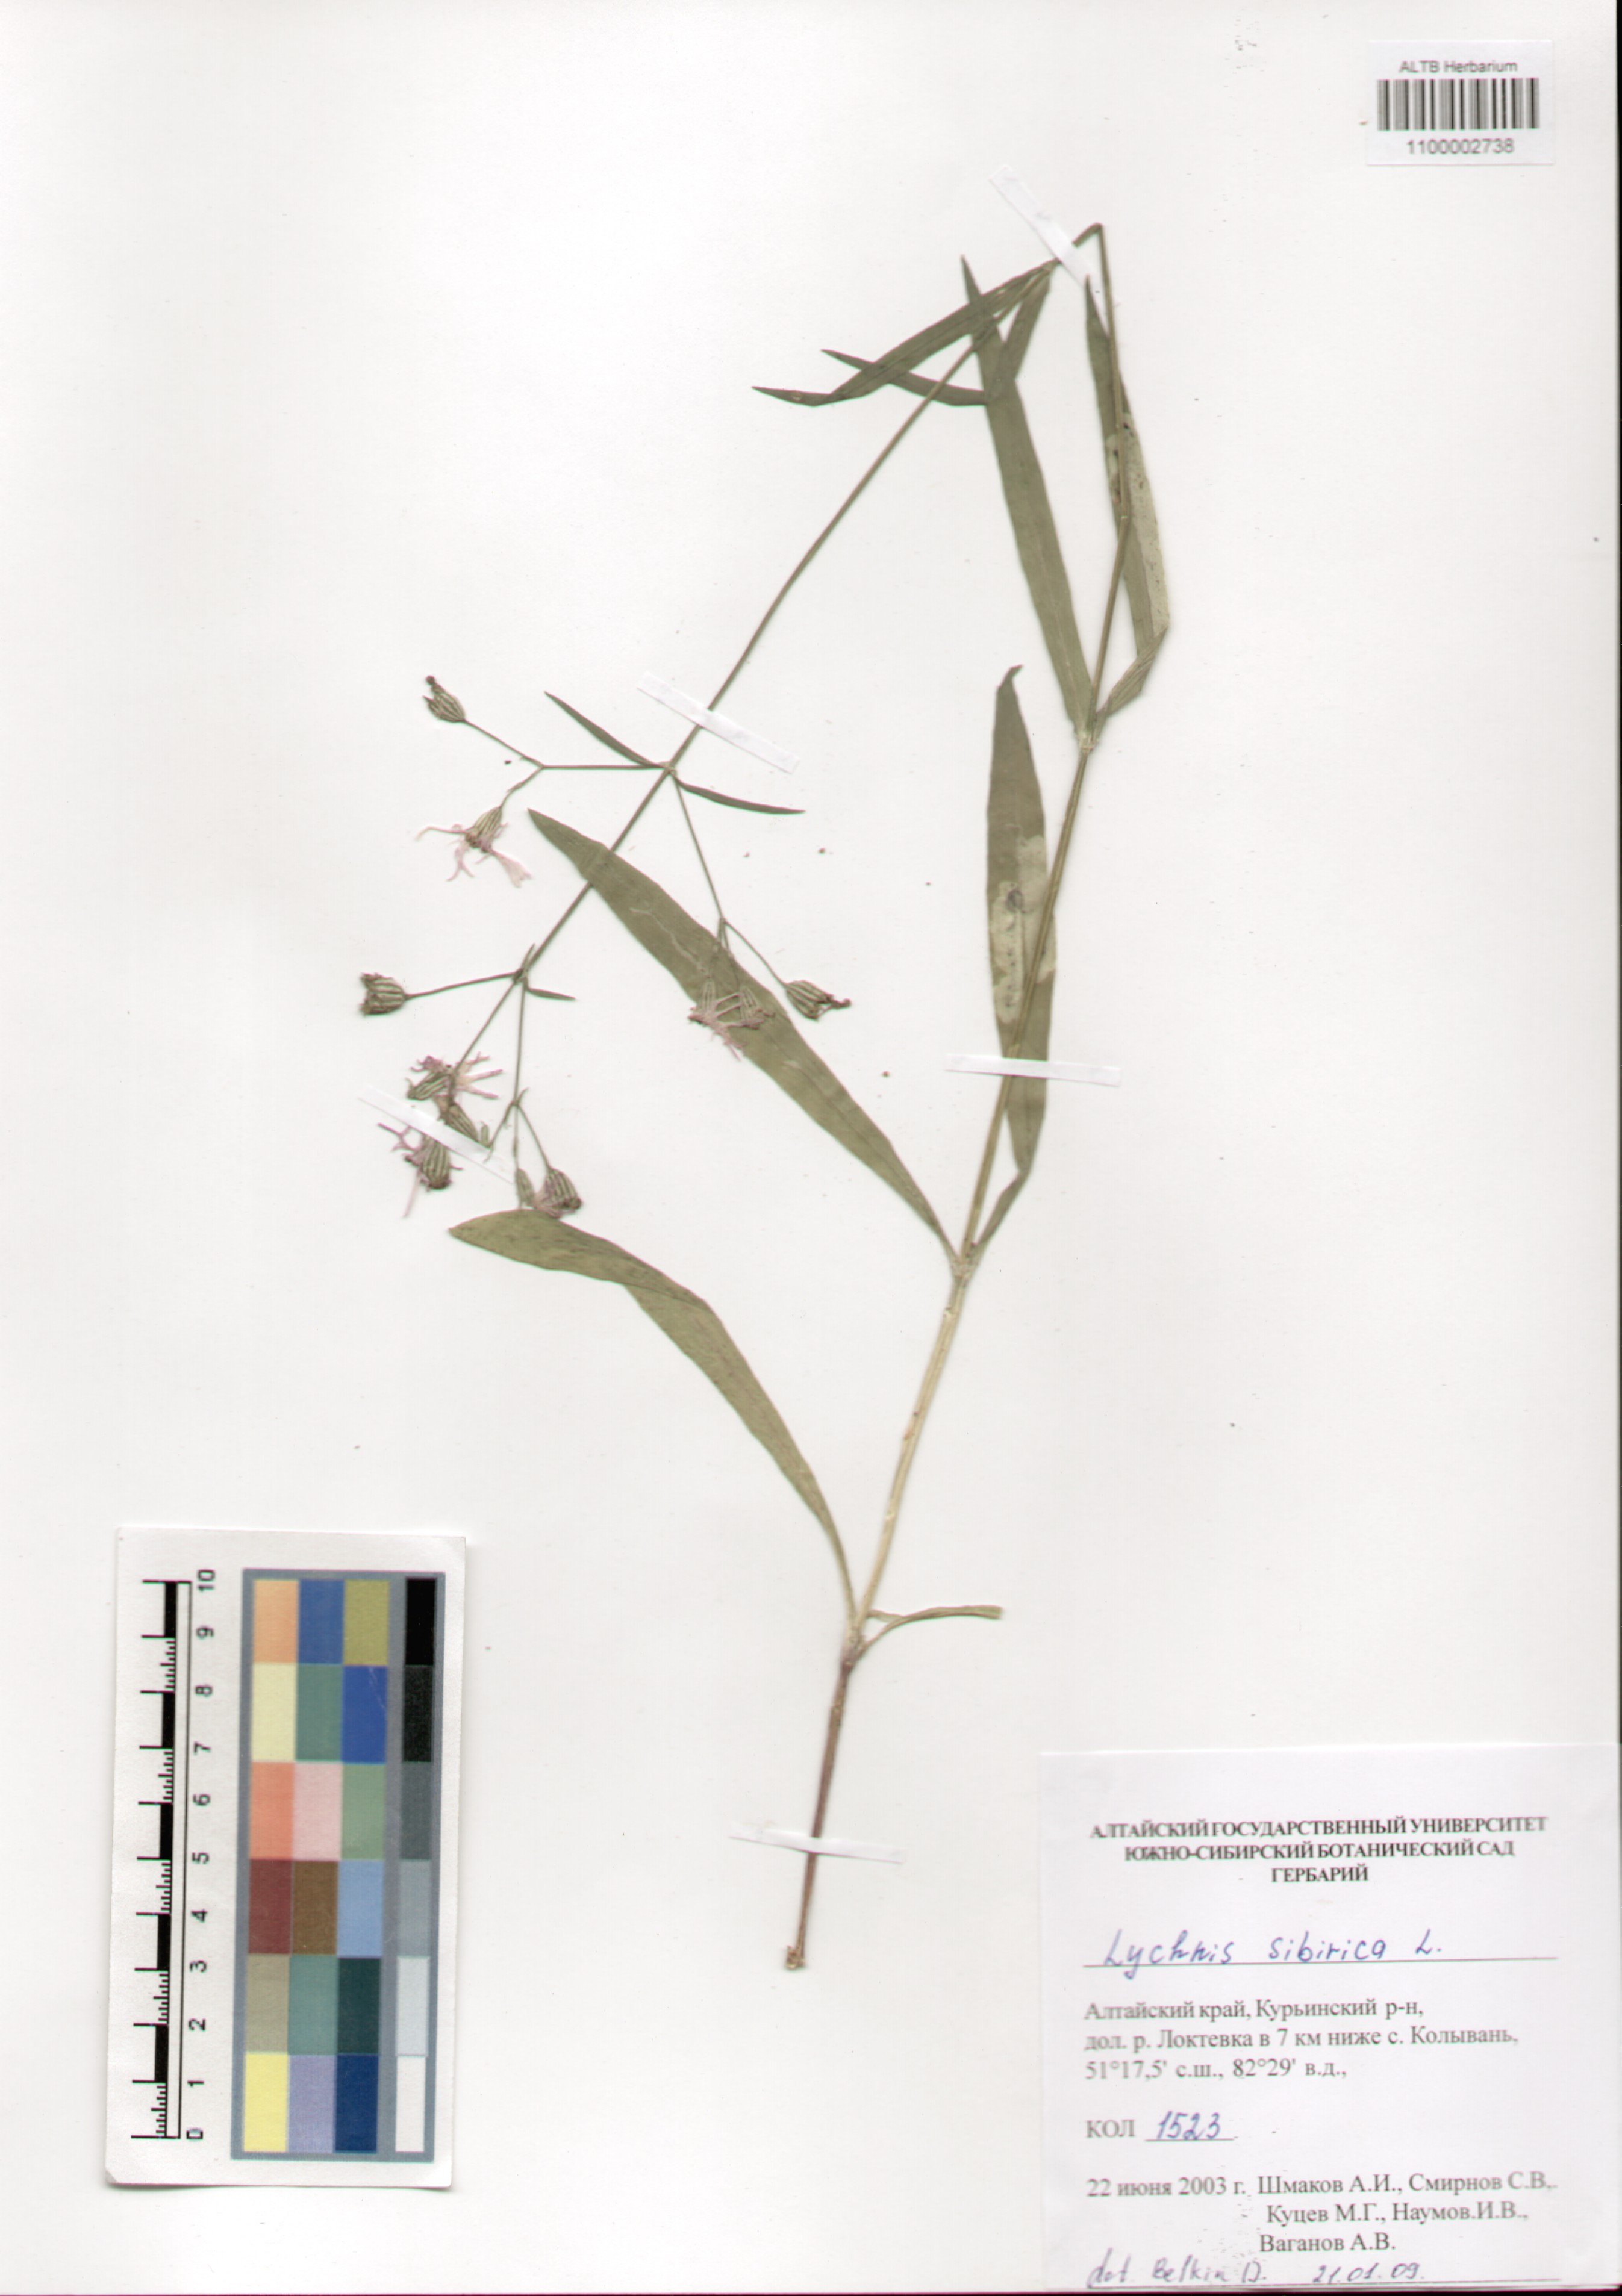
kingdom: Plantae
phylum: Tracheophyta
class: Magnoliopsida
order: Caryophyllales
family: Caryophyllaceae
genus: Silene
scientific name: Silene orientalimongolica
